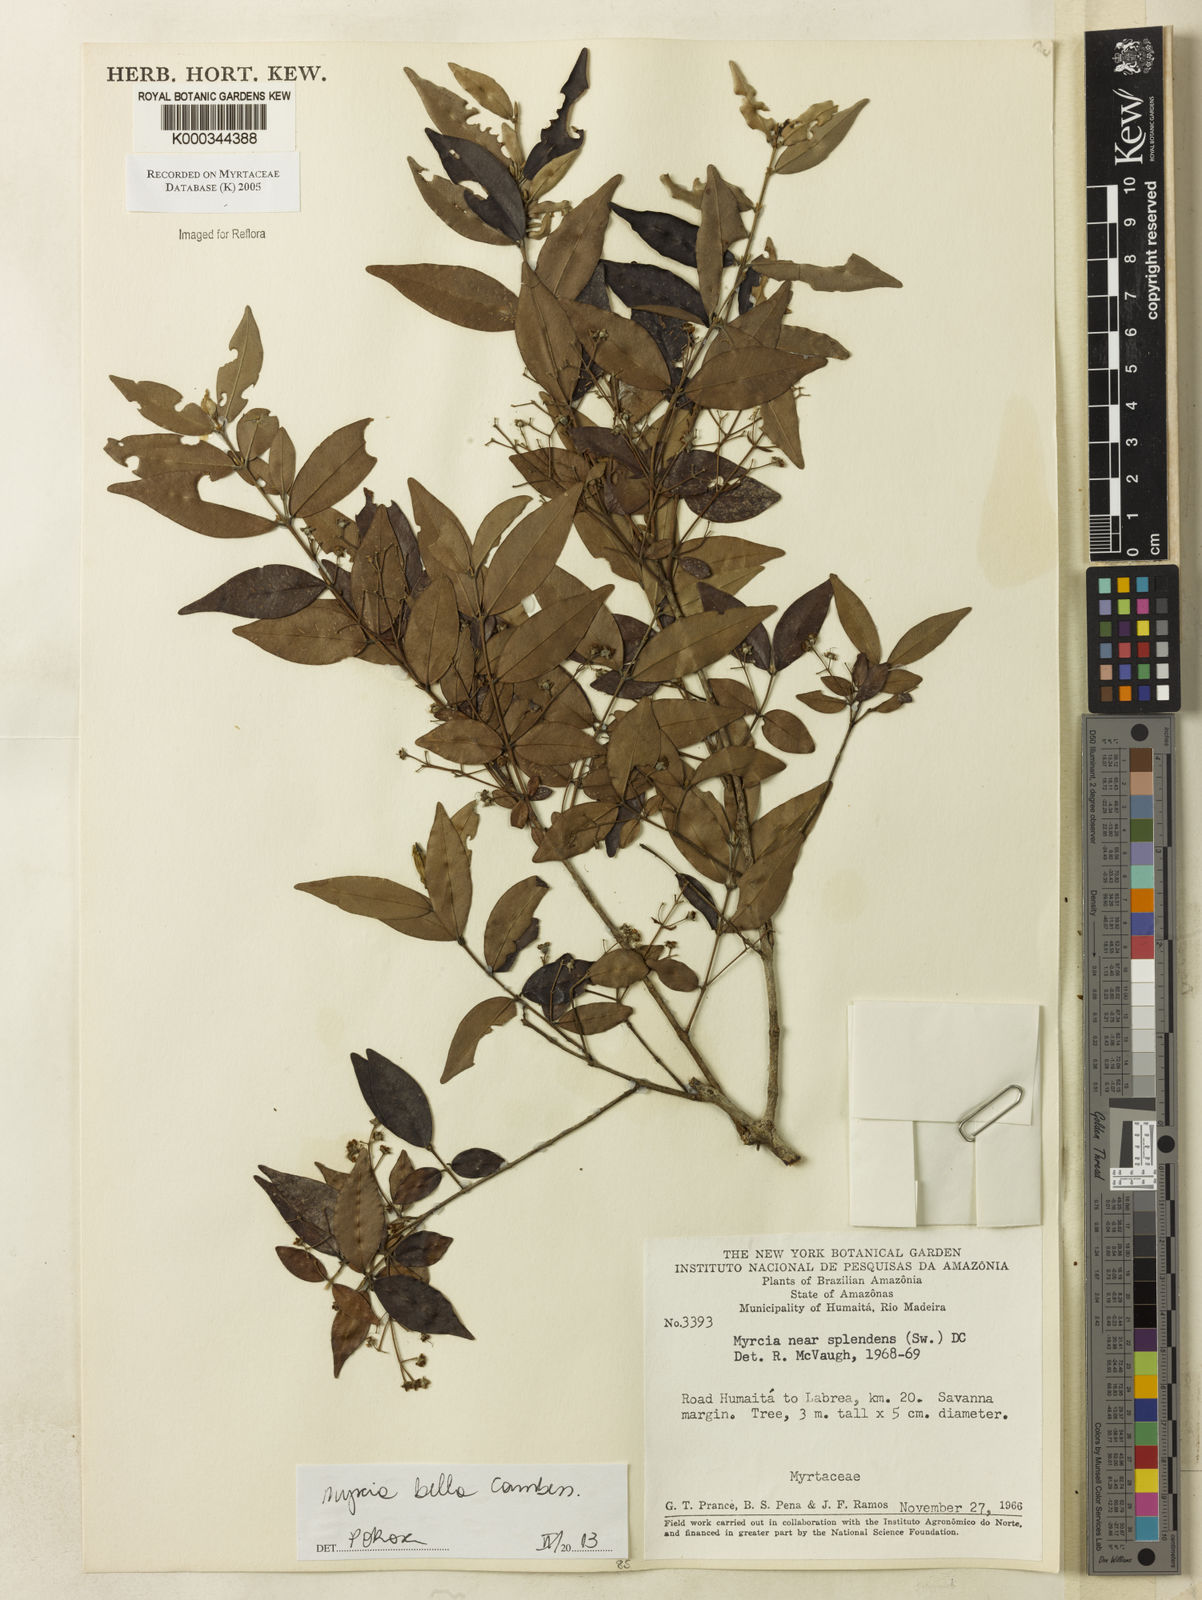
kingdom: Plantae
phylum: Tracheophyta
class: Magnoliopsida
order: Myrtales
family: Myrtaceae
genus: Myrcia
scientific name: Myrcia splendens
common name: Surinam cherry
